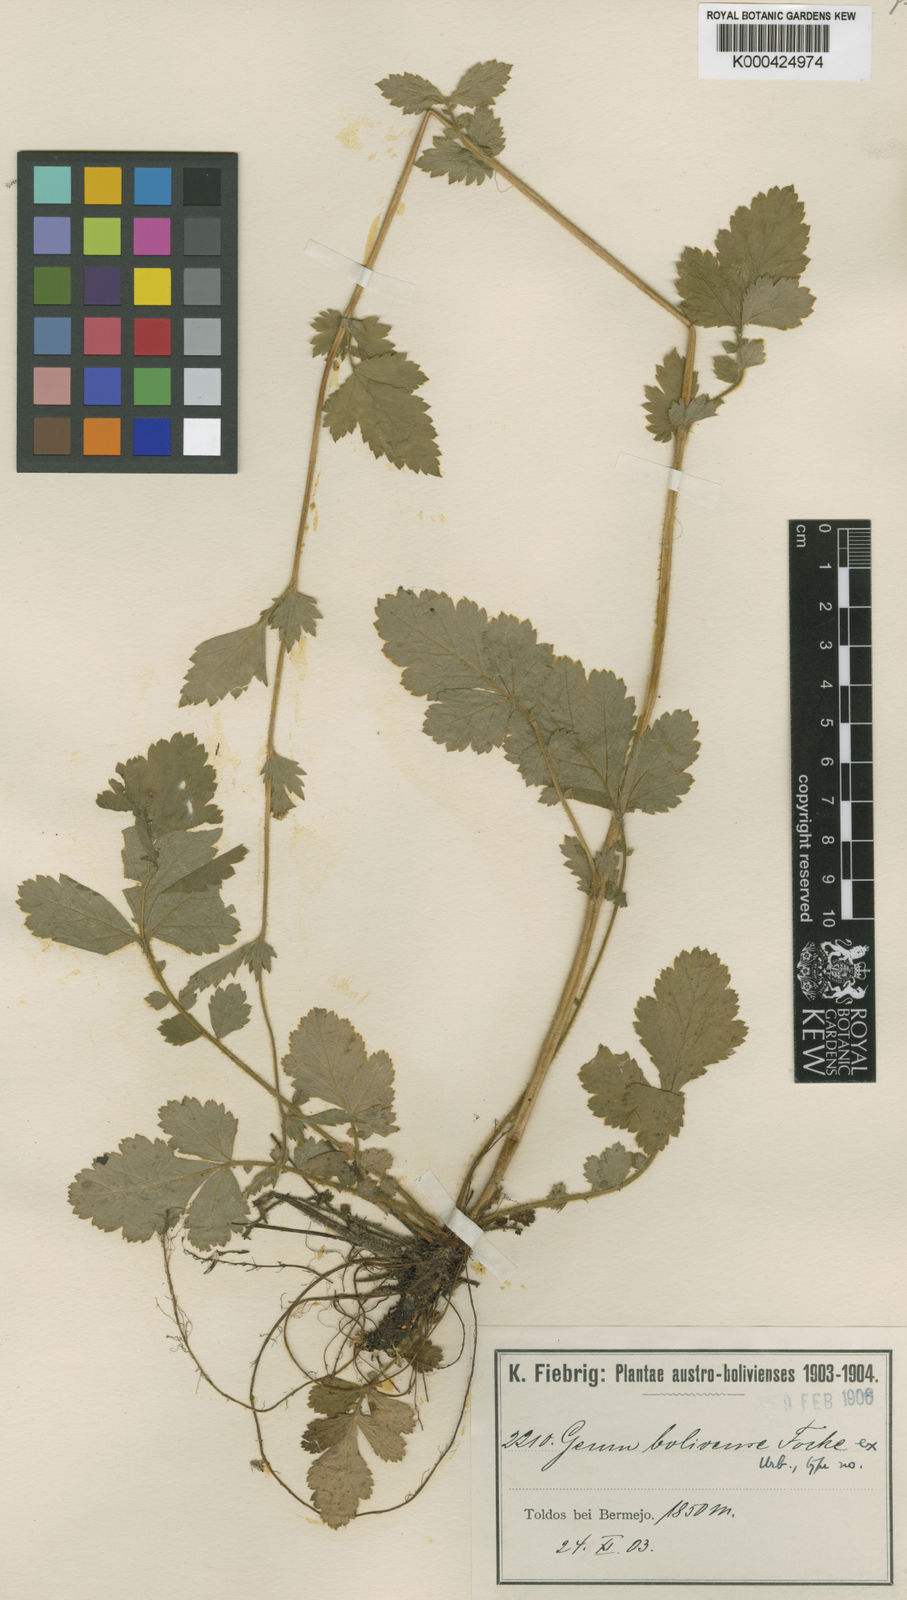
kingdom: Plantae
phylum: Tracheophyta
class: Magnoliopsida
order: Rosales
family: Rosaceae
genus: Geum
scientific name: Geum boliviense
